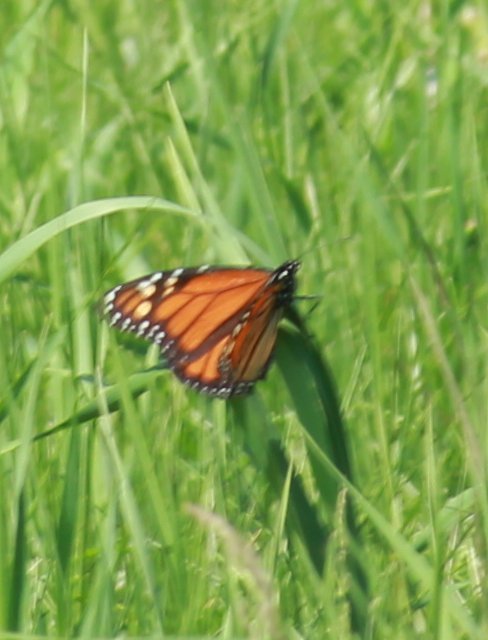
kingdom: Animalia
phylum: Arthropoda
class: Insecta
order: Lepidoptera
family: Nymphalidae
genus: Danaus
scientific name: Danaus plexippus
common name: Monarch
